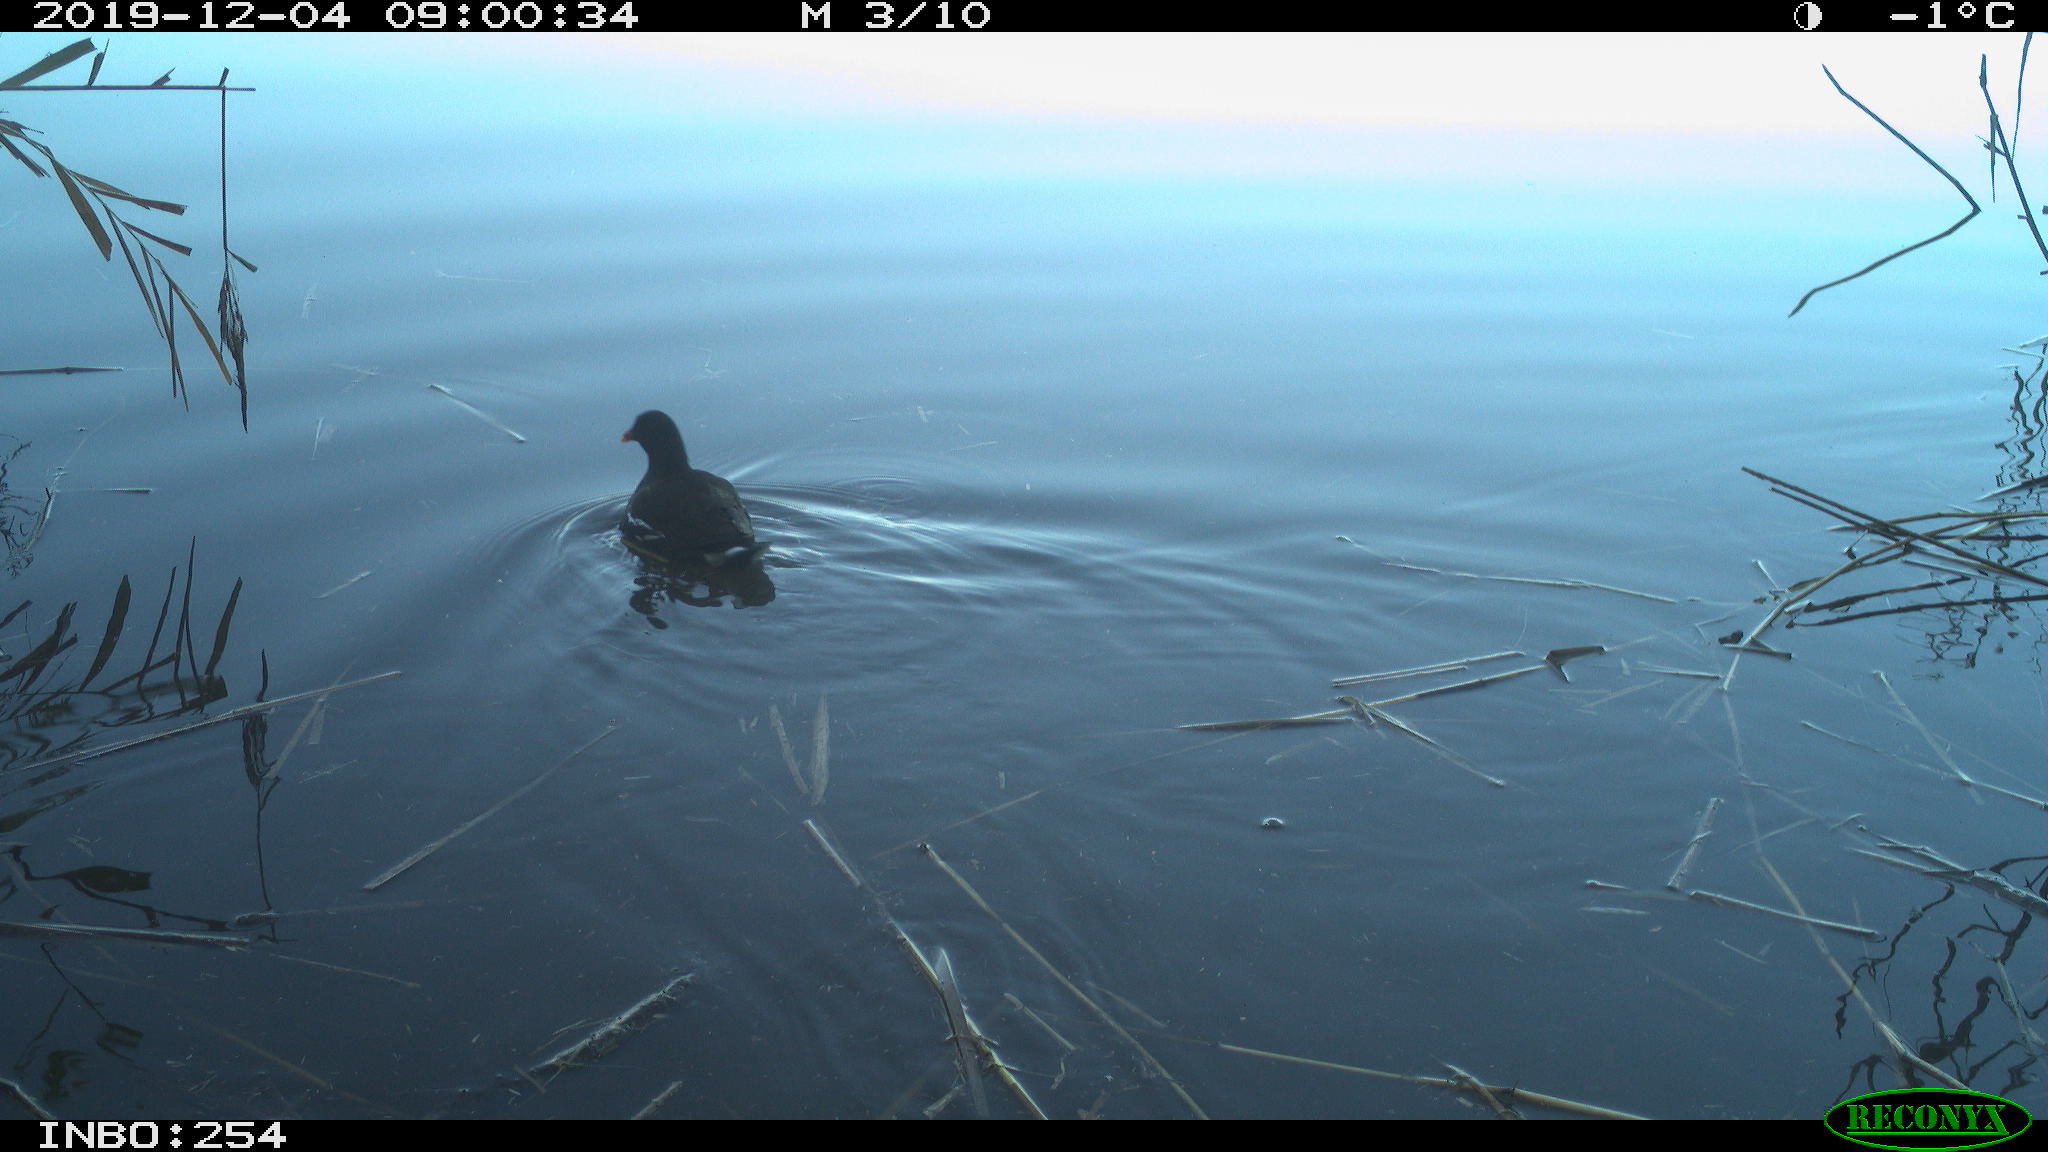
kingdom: Animalia
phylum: Chordata
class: Aves
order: Gruiformes
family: Rallidae
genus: Gallinula
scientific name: Gallinula chloropus
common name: Common moorhen
